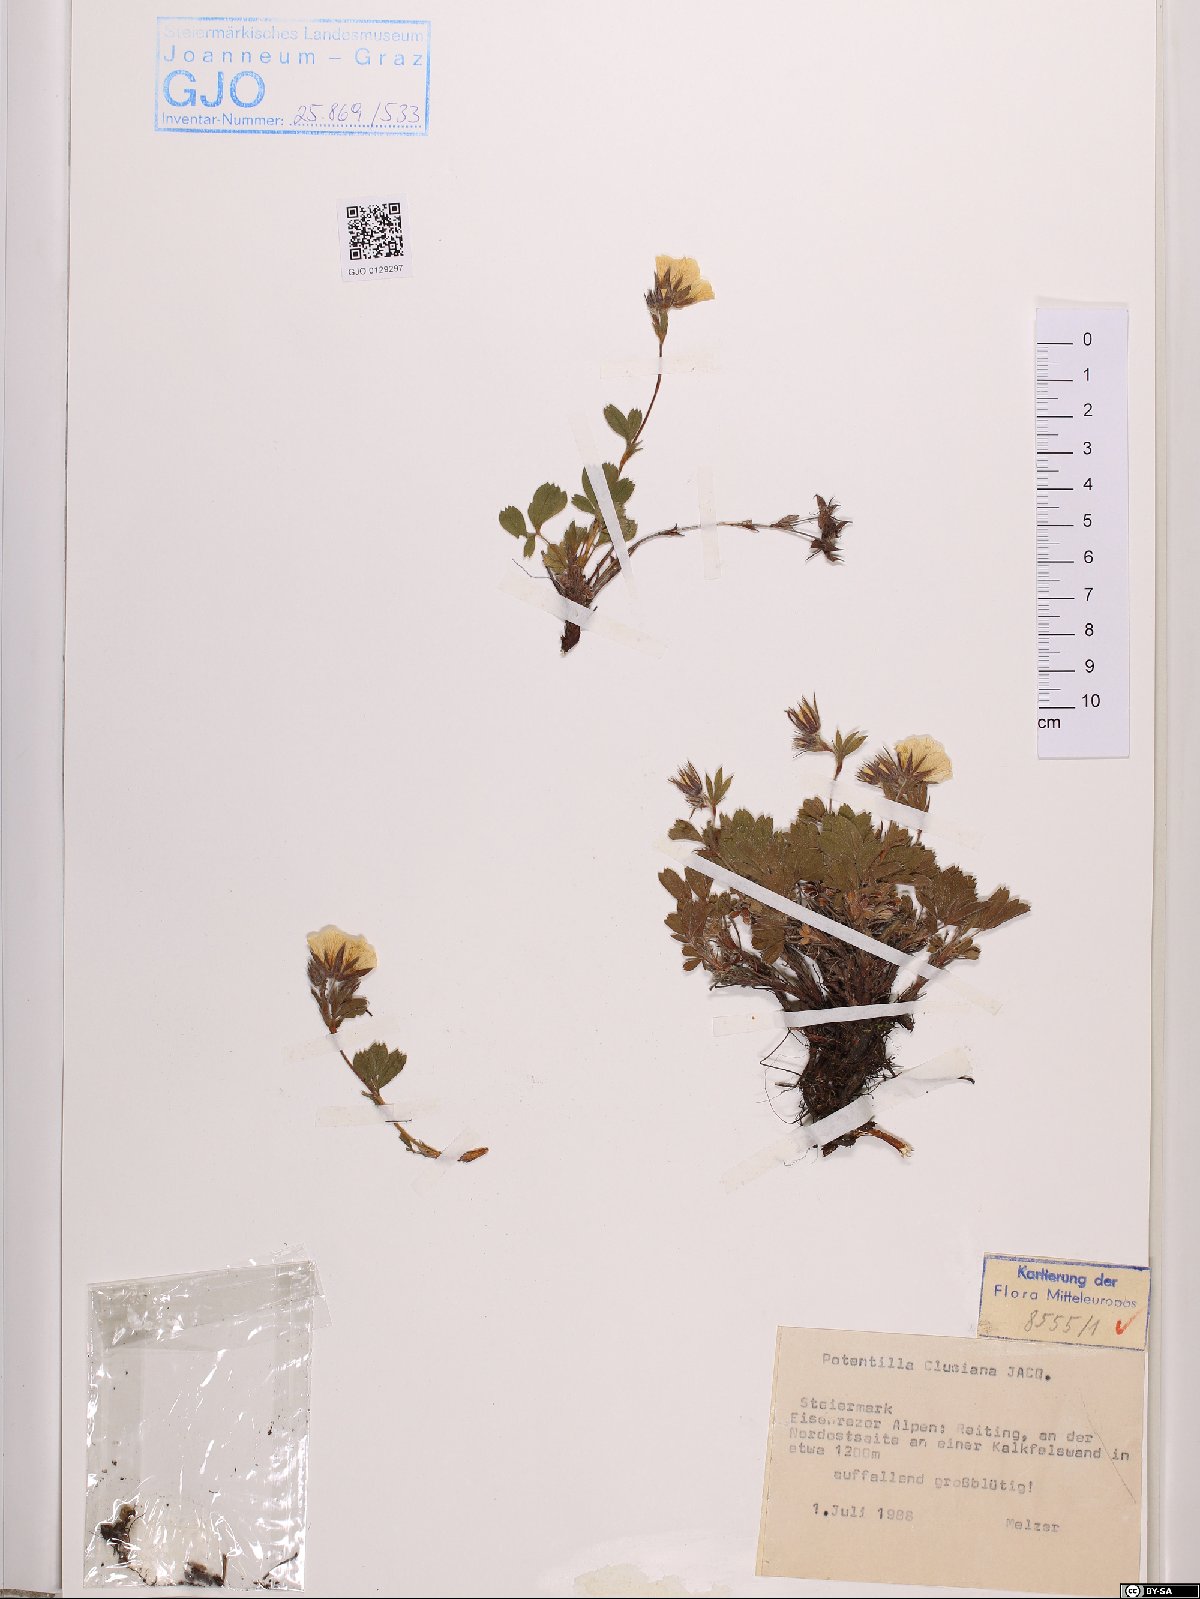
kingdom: Plantae
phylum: Tracheophyta
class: Magnoliopsida
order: Rosales
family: Rosaceae
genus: Potentilla
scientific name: Potentilla clusiana
